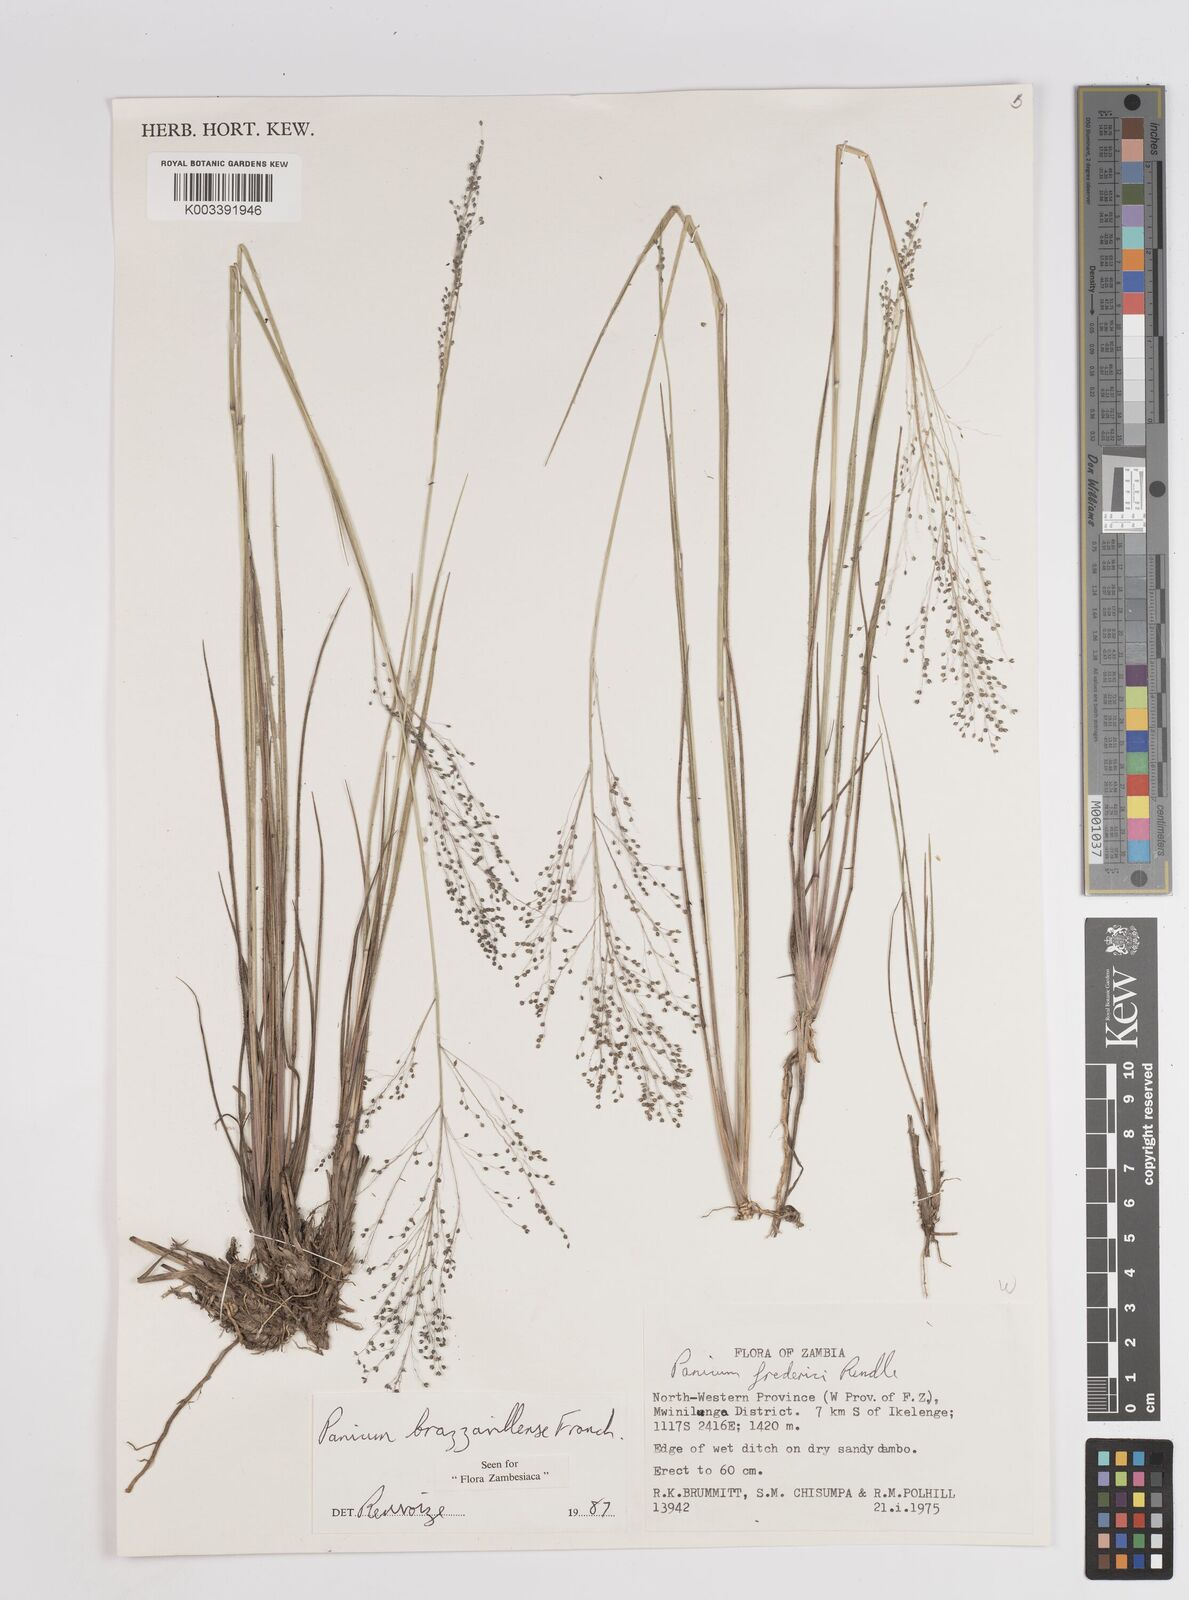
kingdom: Plantae
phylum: Tracheophyta
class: Liliopsida
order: Poales
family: Poaceae
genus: Trichanthecium
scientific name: Trichanthecium brazzavillense
